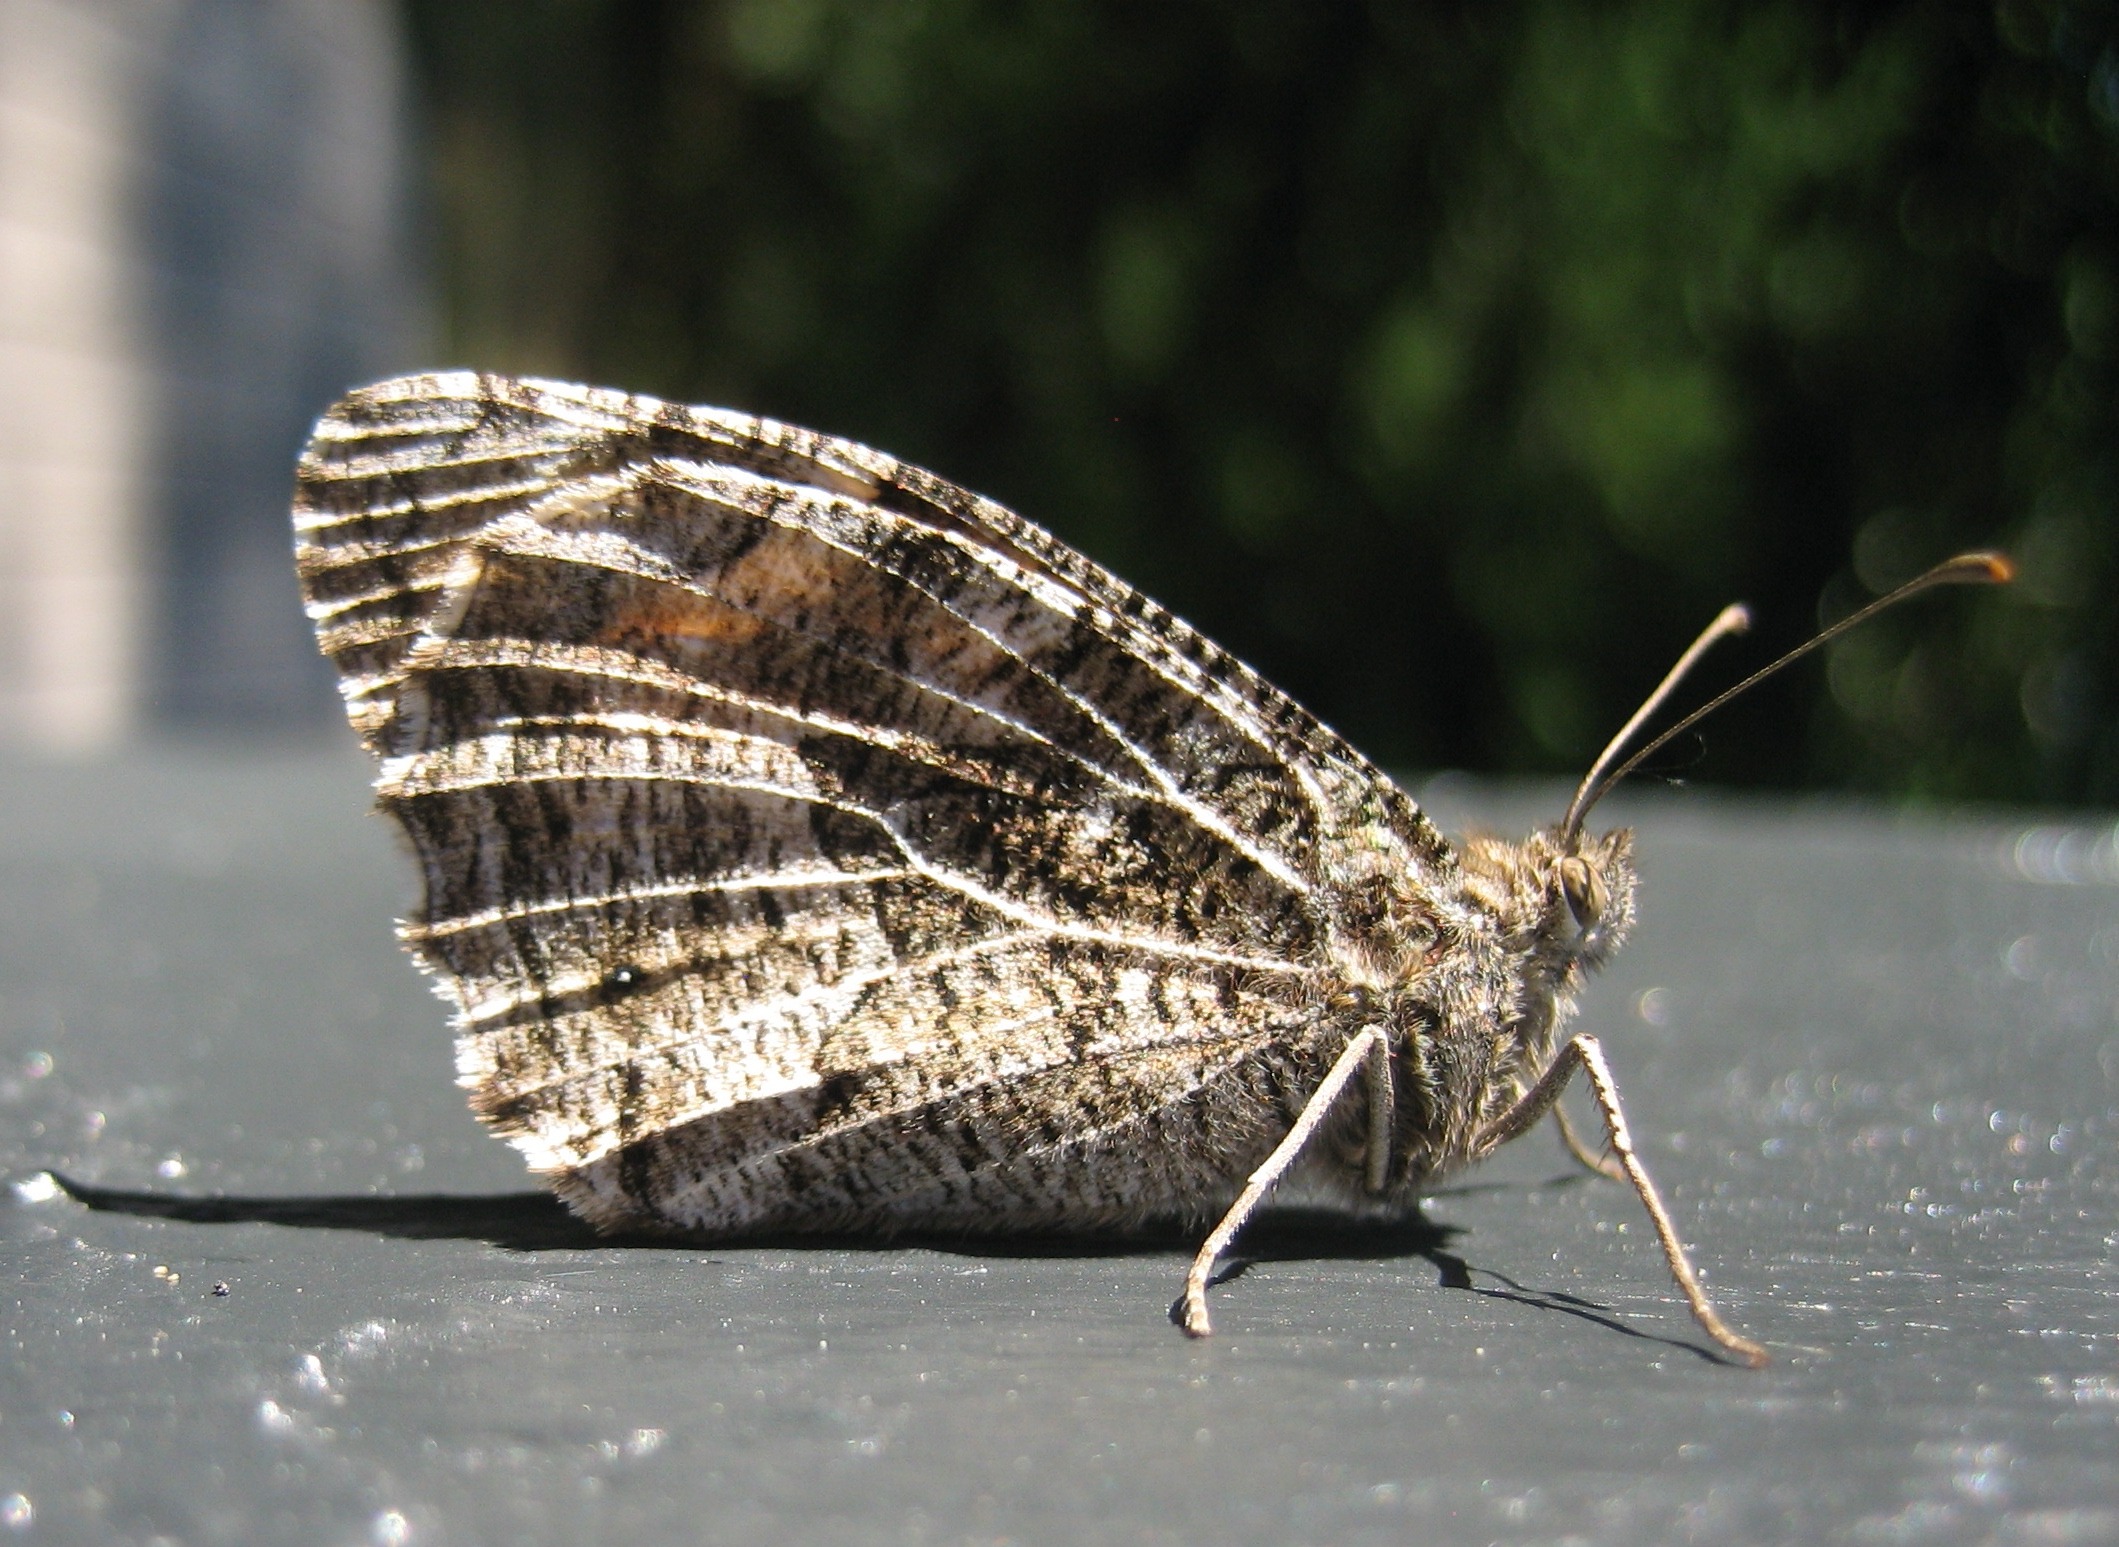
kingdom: Animalia
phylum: Arthropoda
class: Insecta
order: Lepidoptera
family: Nymphalidae
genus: Hipparchia
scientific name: Hipparchia semele
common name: Sandrandøje
